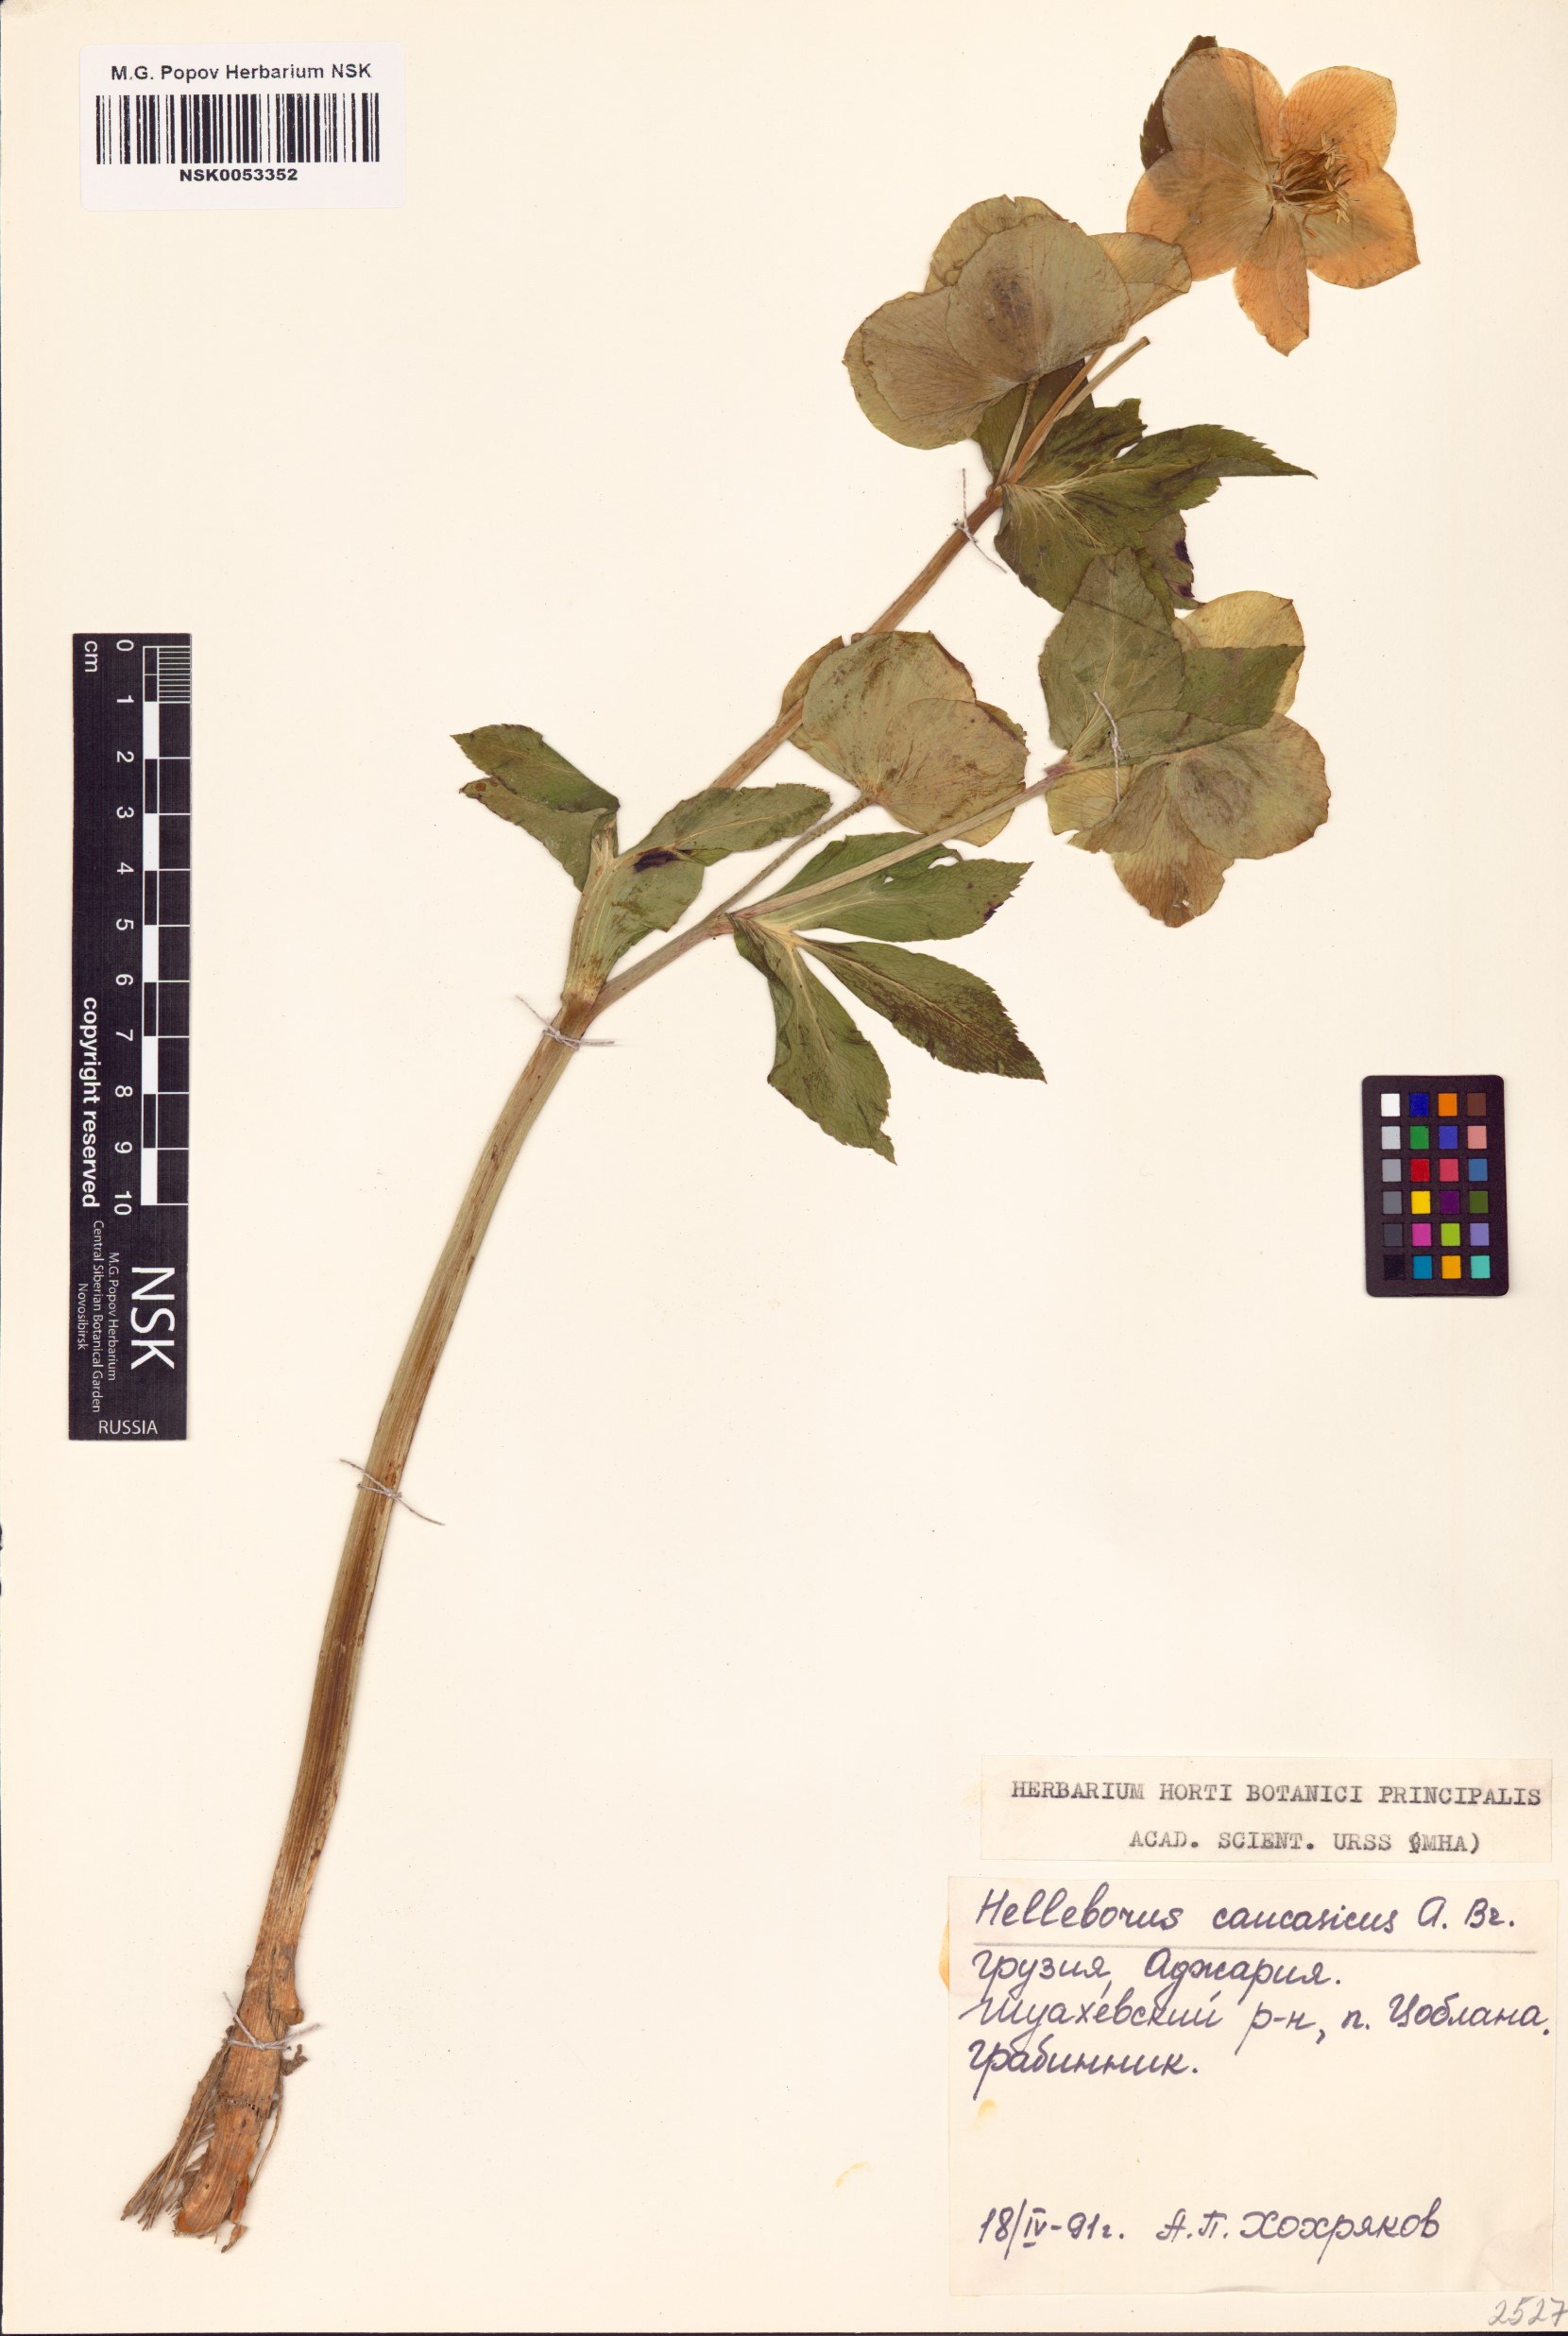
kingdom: Plantae
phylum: Tracheophyta
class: Magnoliopsida
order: Ranunculales
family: Ranunculaceae
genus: Helleborus
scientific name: Helleborus orientalis
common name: Lenten-rose
